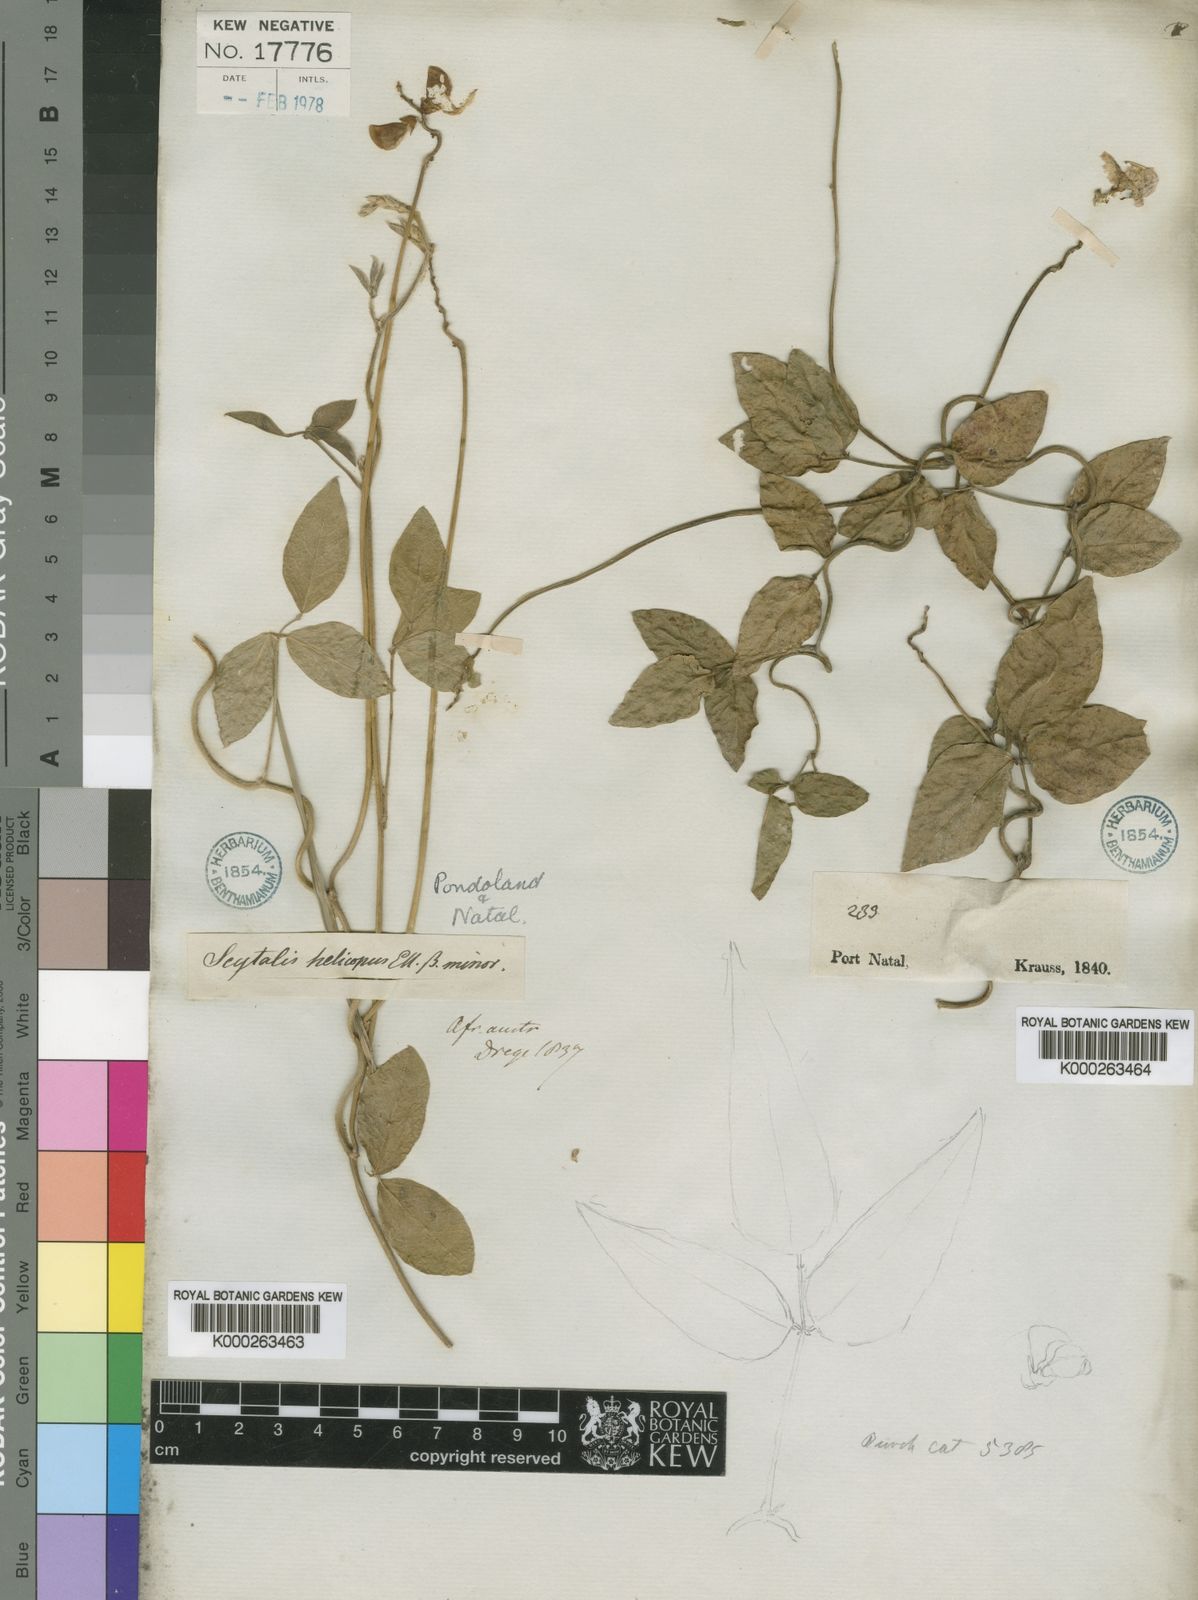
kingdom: Plantae
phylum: Tracheophyta
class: Magnoliopsida
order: Fabales
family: Fabaceae
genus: Vigna
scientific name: Vigna luteola
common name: Hairypod cowpea
